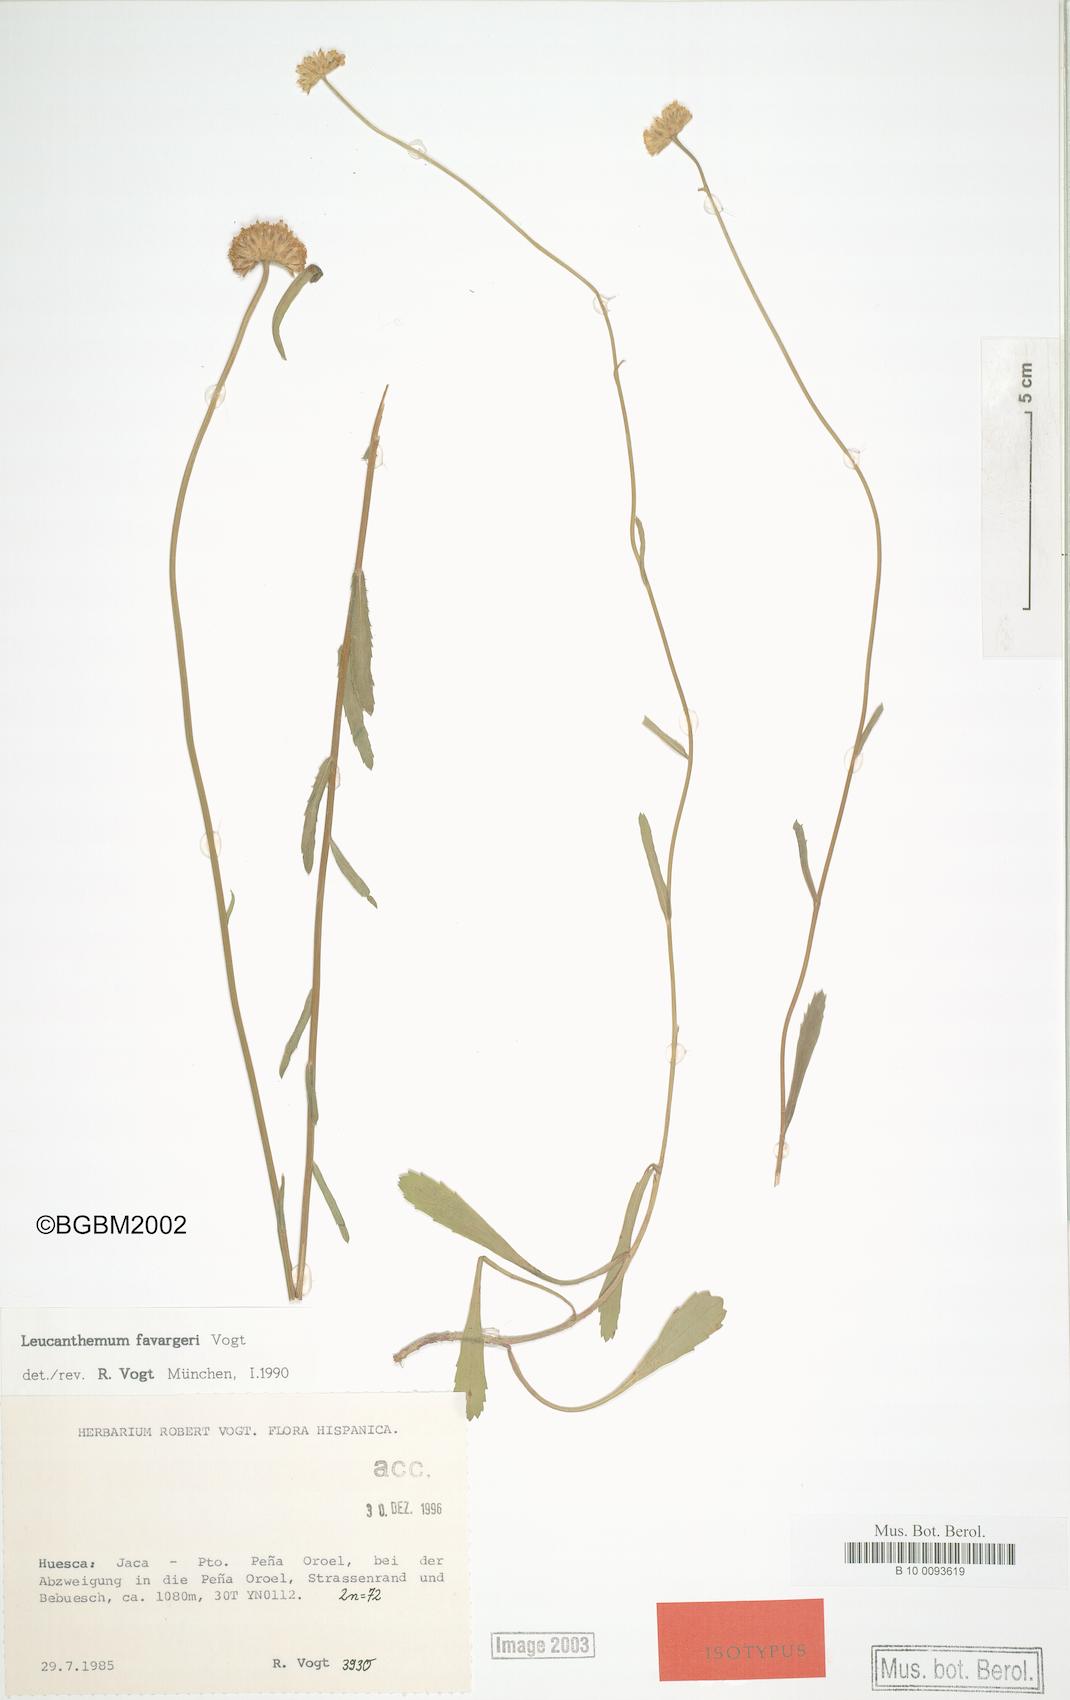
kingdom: Plantae
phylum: Tracheophyta
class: Magnoliopsida
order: Asterales
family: Asteraceae
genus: Leucanthemum
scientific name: Leucanthemum favargeri
